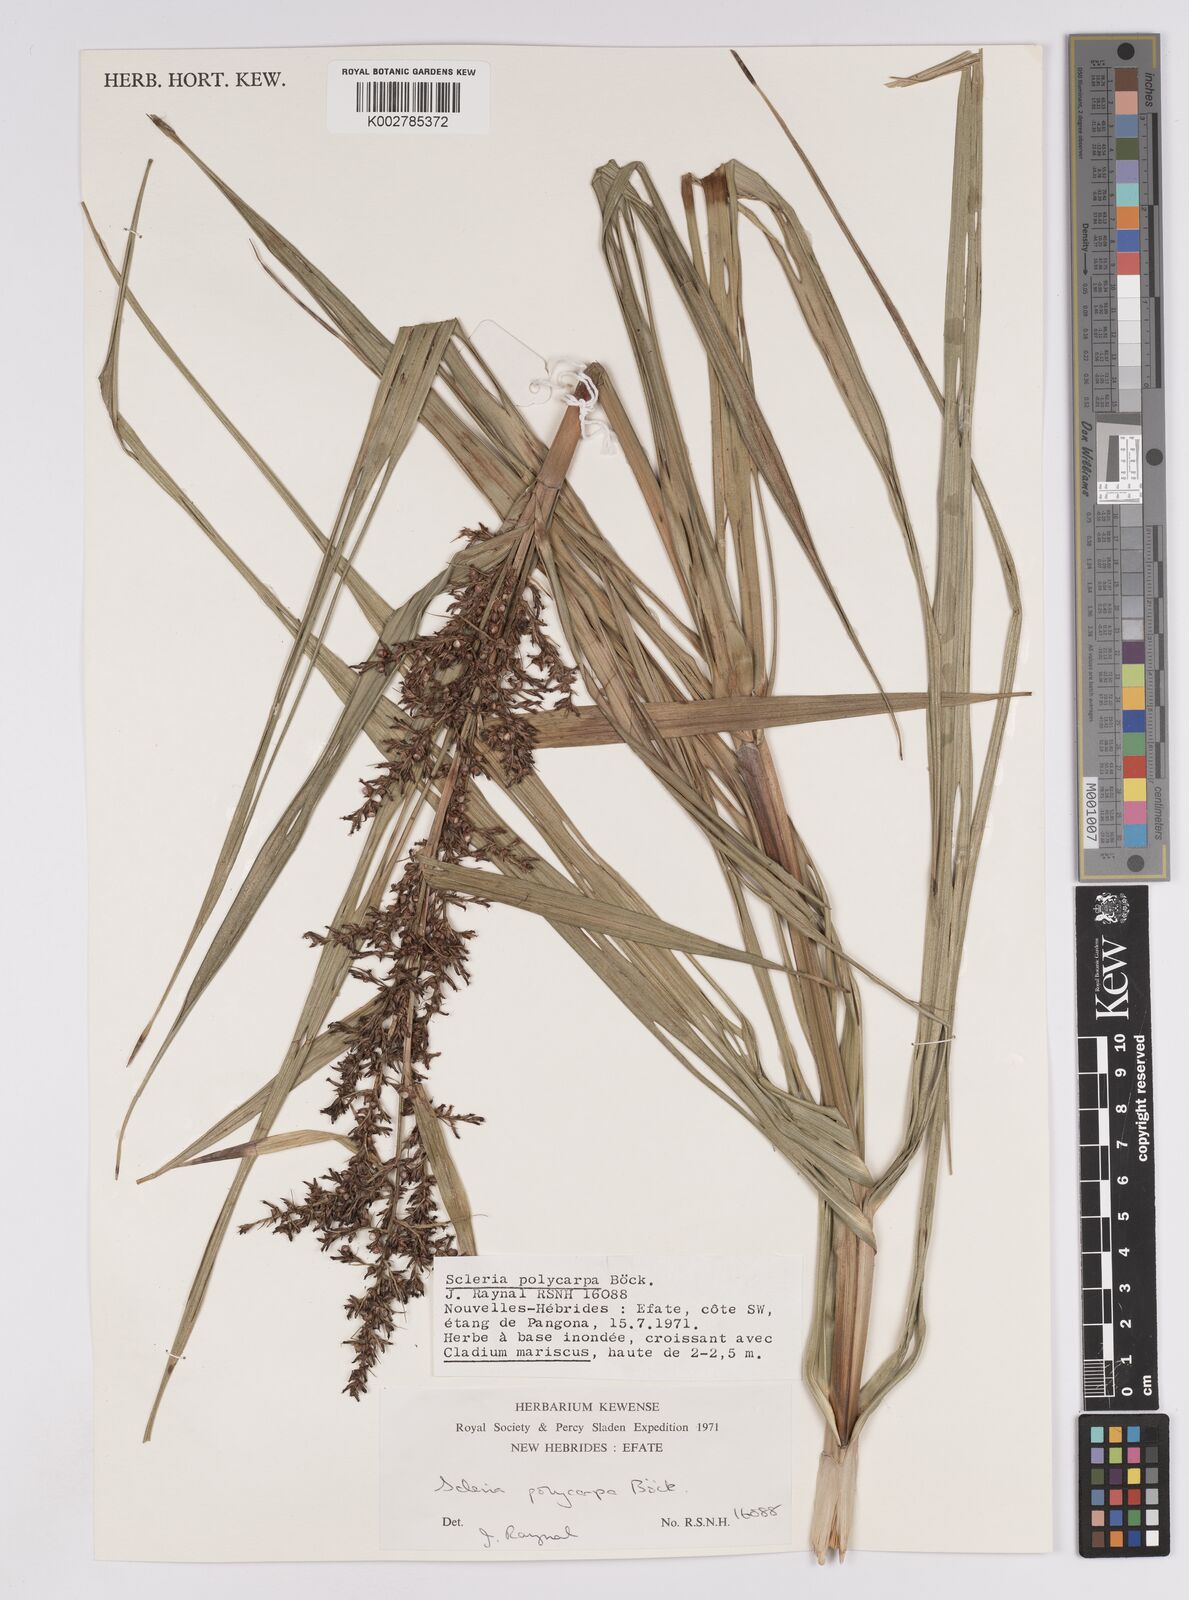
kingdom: Plantae
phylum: Tracheophyta
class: Liliopsida
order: Poales
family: Cyperaceae
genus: Scleria
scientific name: Scleria polycarpa
